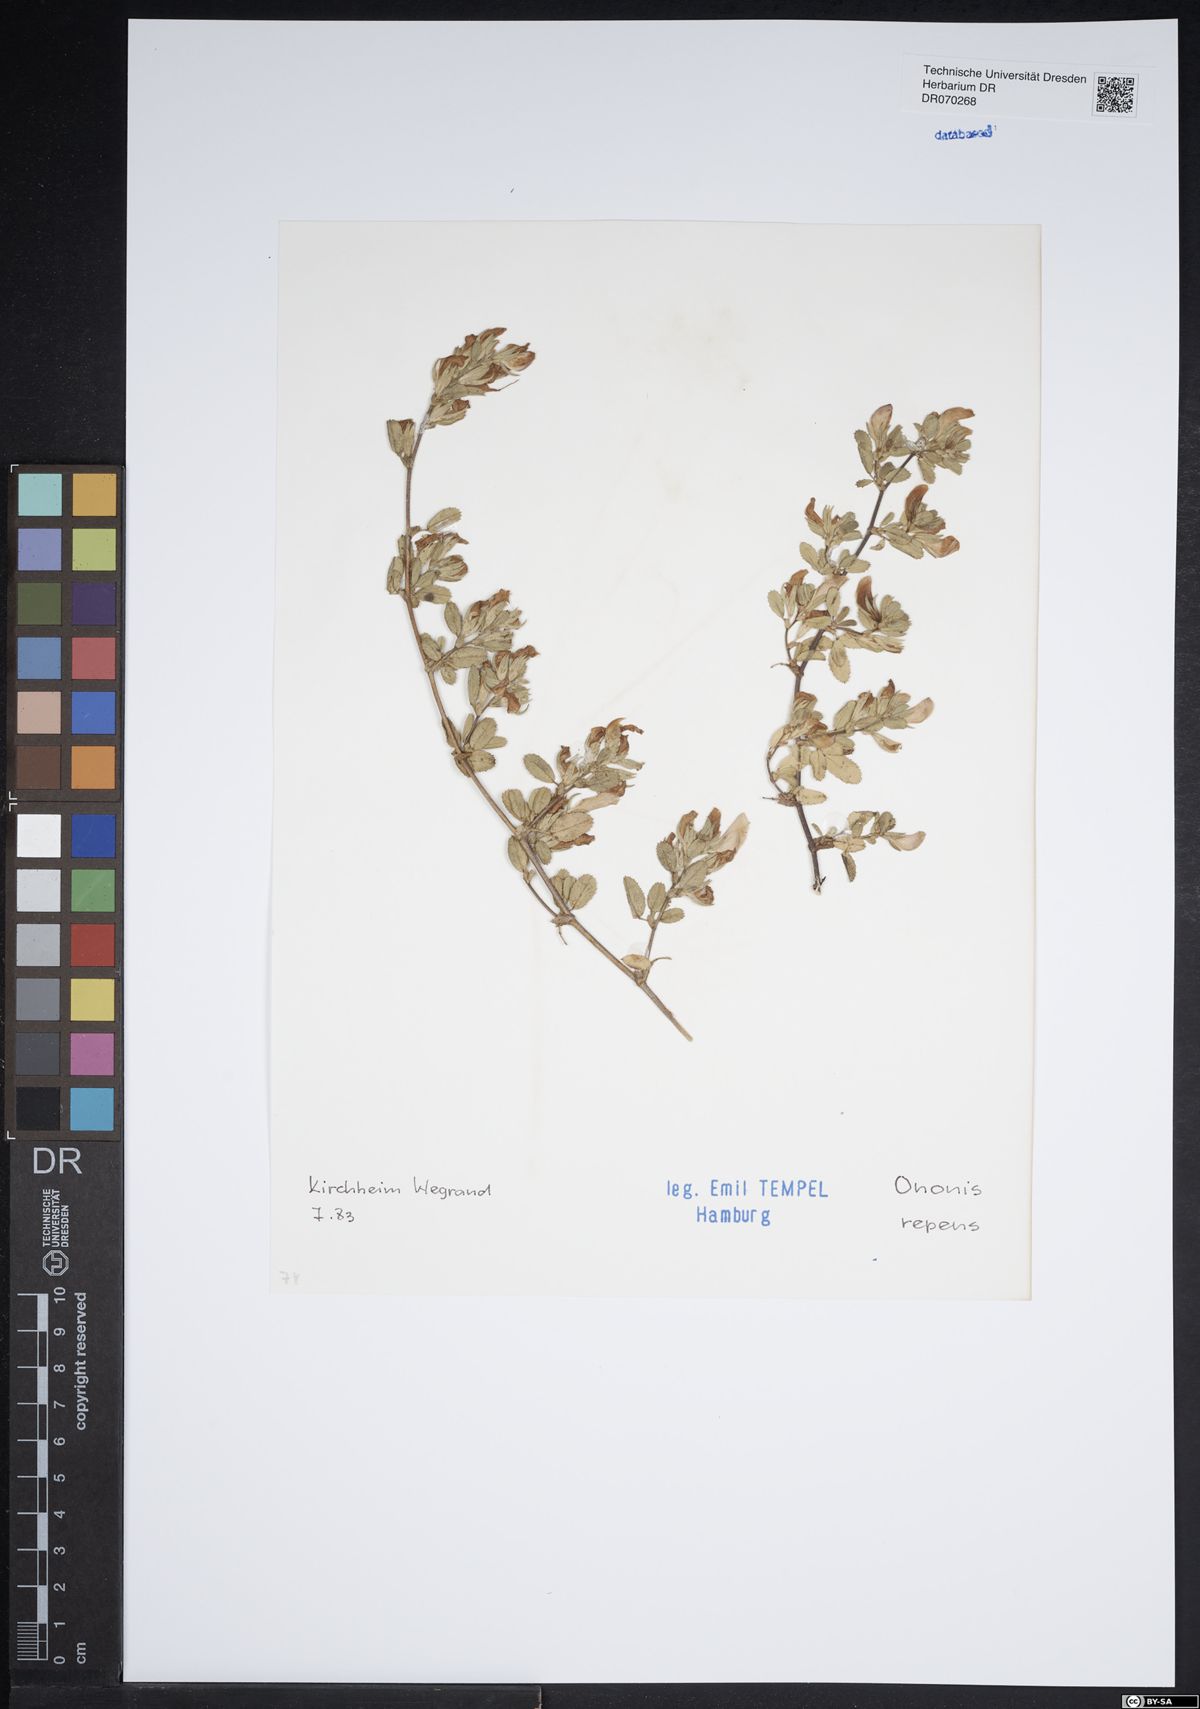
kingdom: Plantae
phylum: Tracheophyta
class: Magnoliopsida
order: Fabales
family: Fabaceae
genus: Ononis
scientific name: Ononis spinosa
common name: Spiny restharrow
